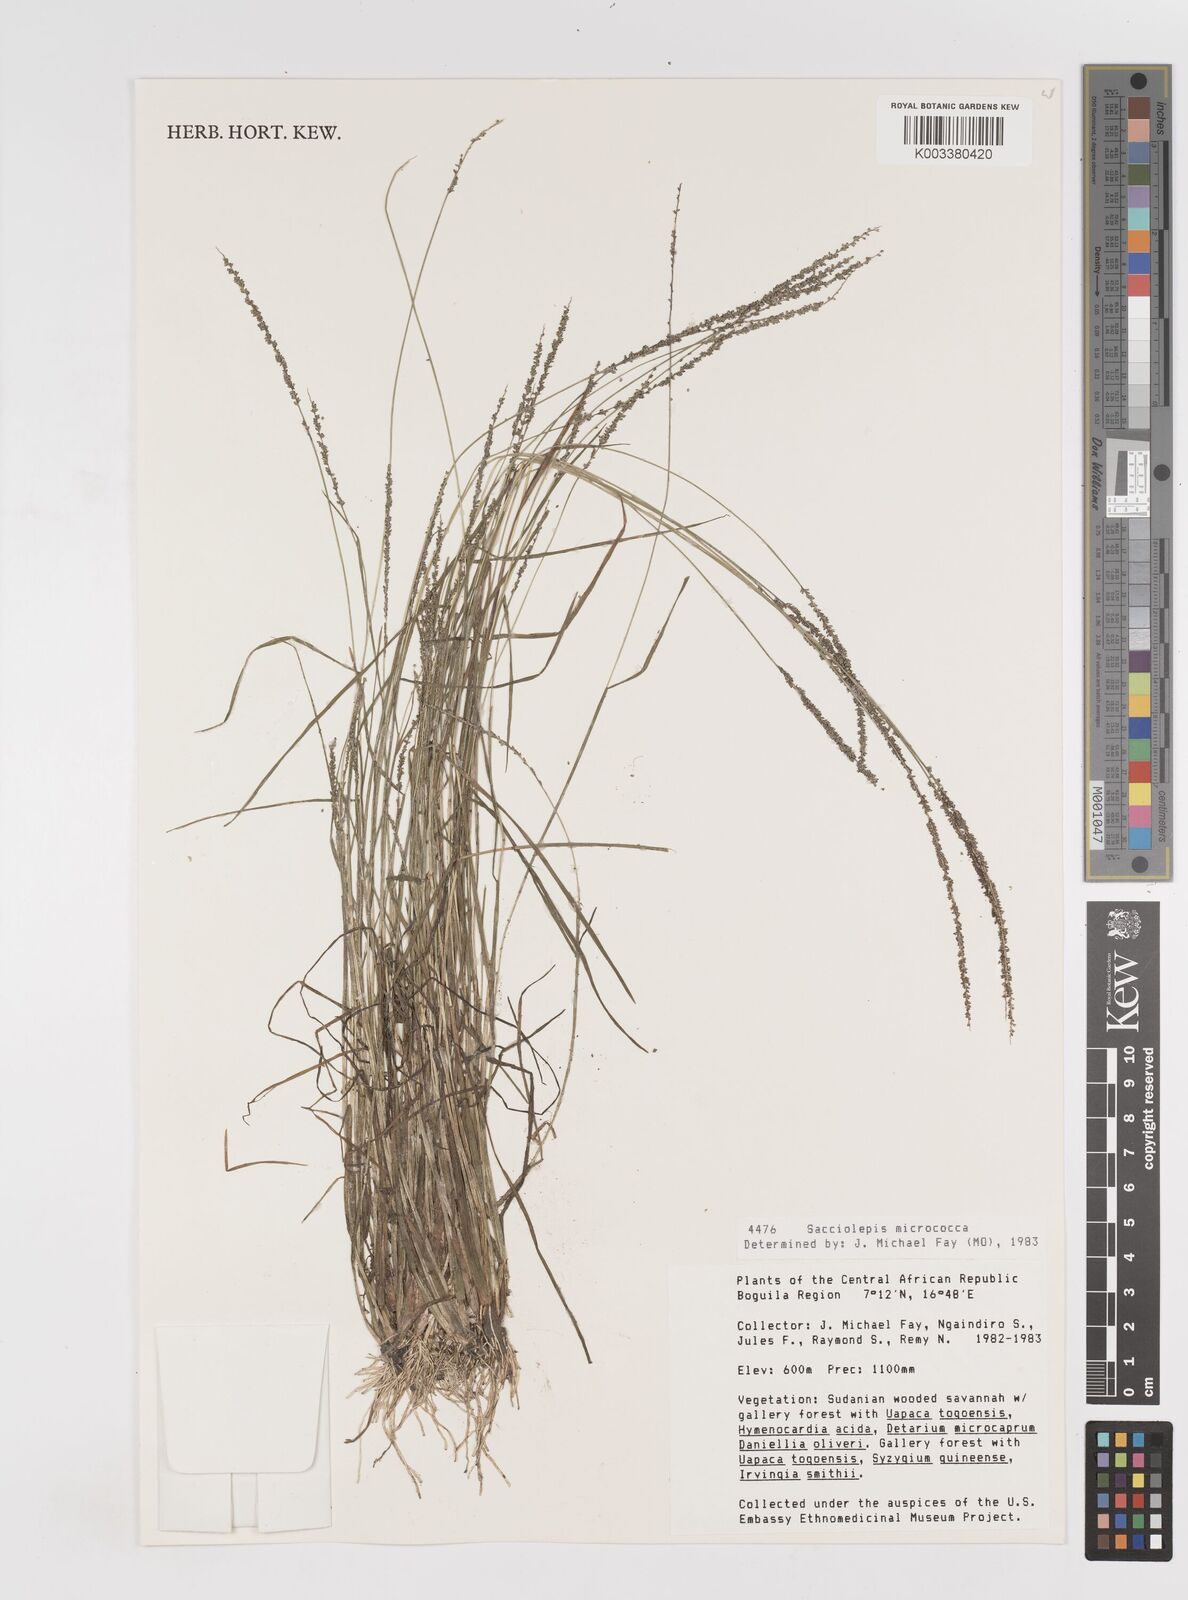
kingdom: Plantae
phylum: Tracheophyta
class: Liliopsida
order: Poales
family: Poaceae
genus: Sacciolepis
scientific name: Sacciolepis micrococca
